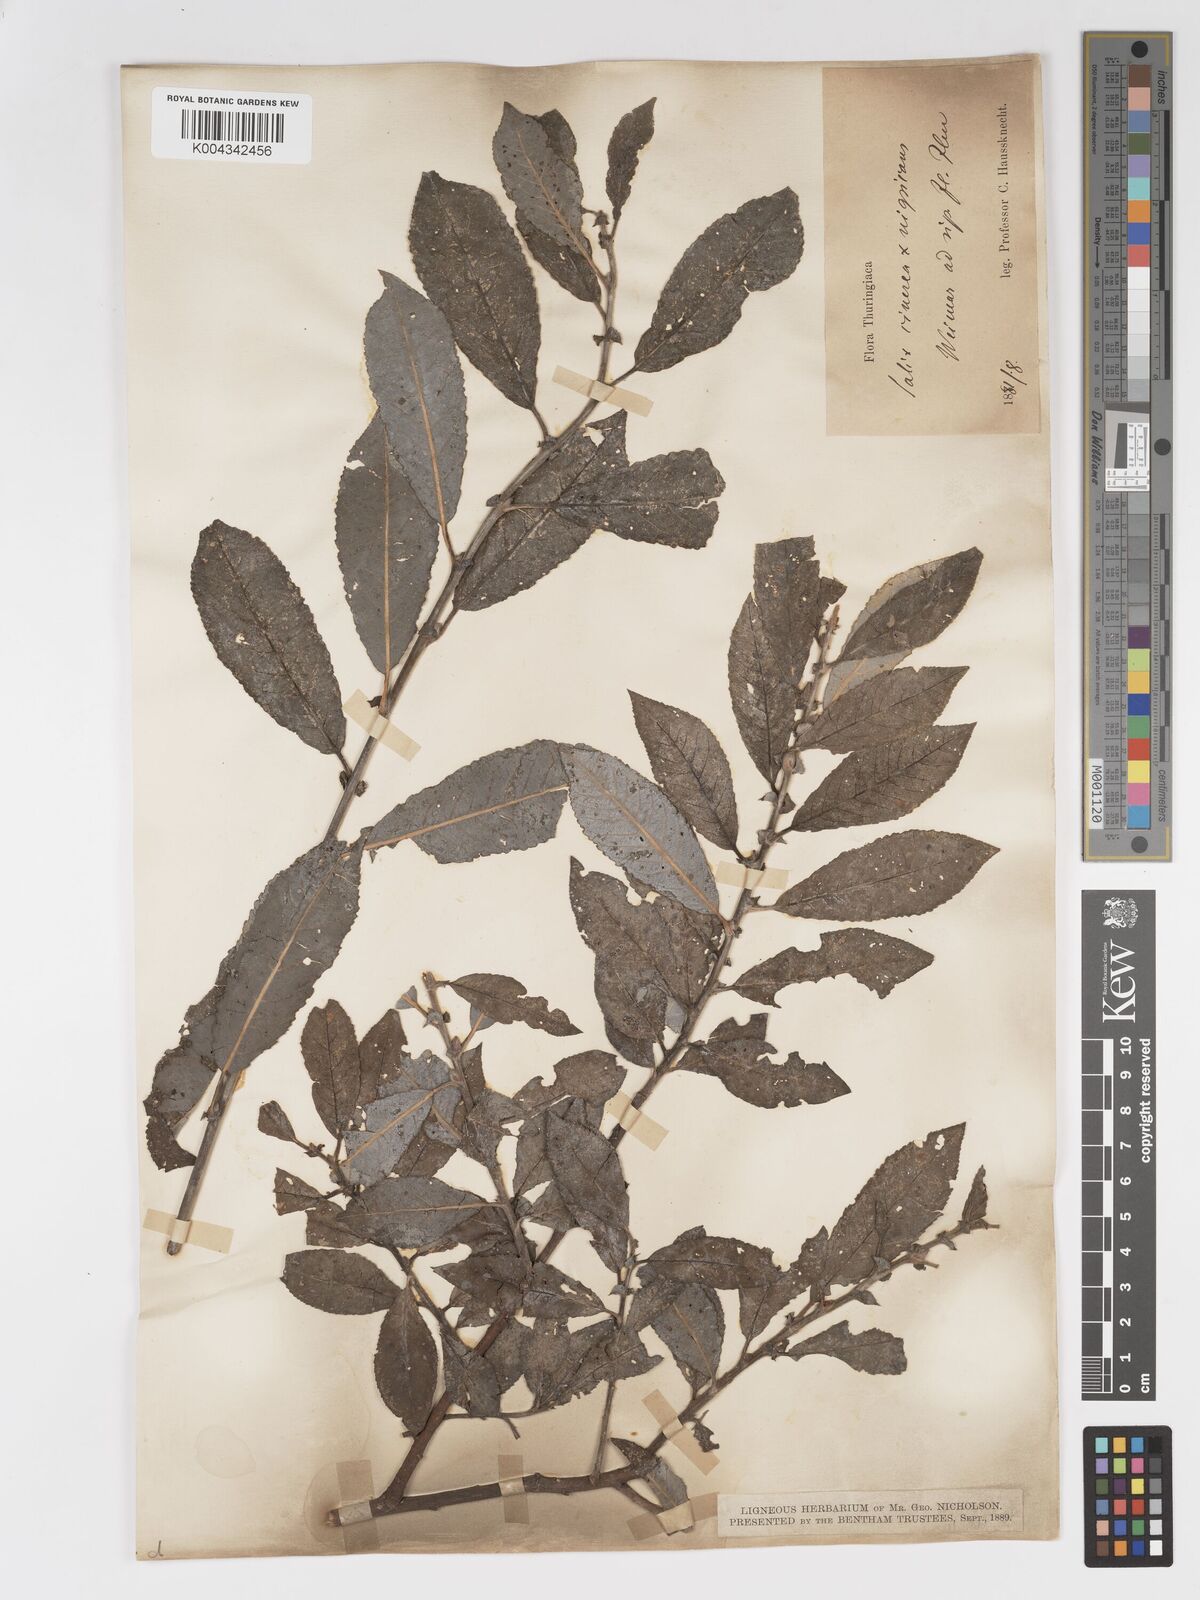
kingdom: Plantae
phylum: Tracheophyta
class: Magnoliopsida
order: Malpighiales
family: Salicaceae
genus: Salix
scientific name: Salix
